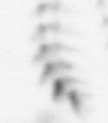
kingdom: Animalia
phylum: Arthropoda
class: Maxillopoda
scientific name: Maxillopoda
